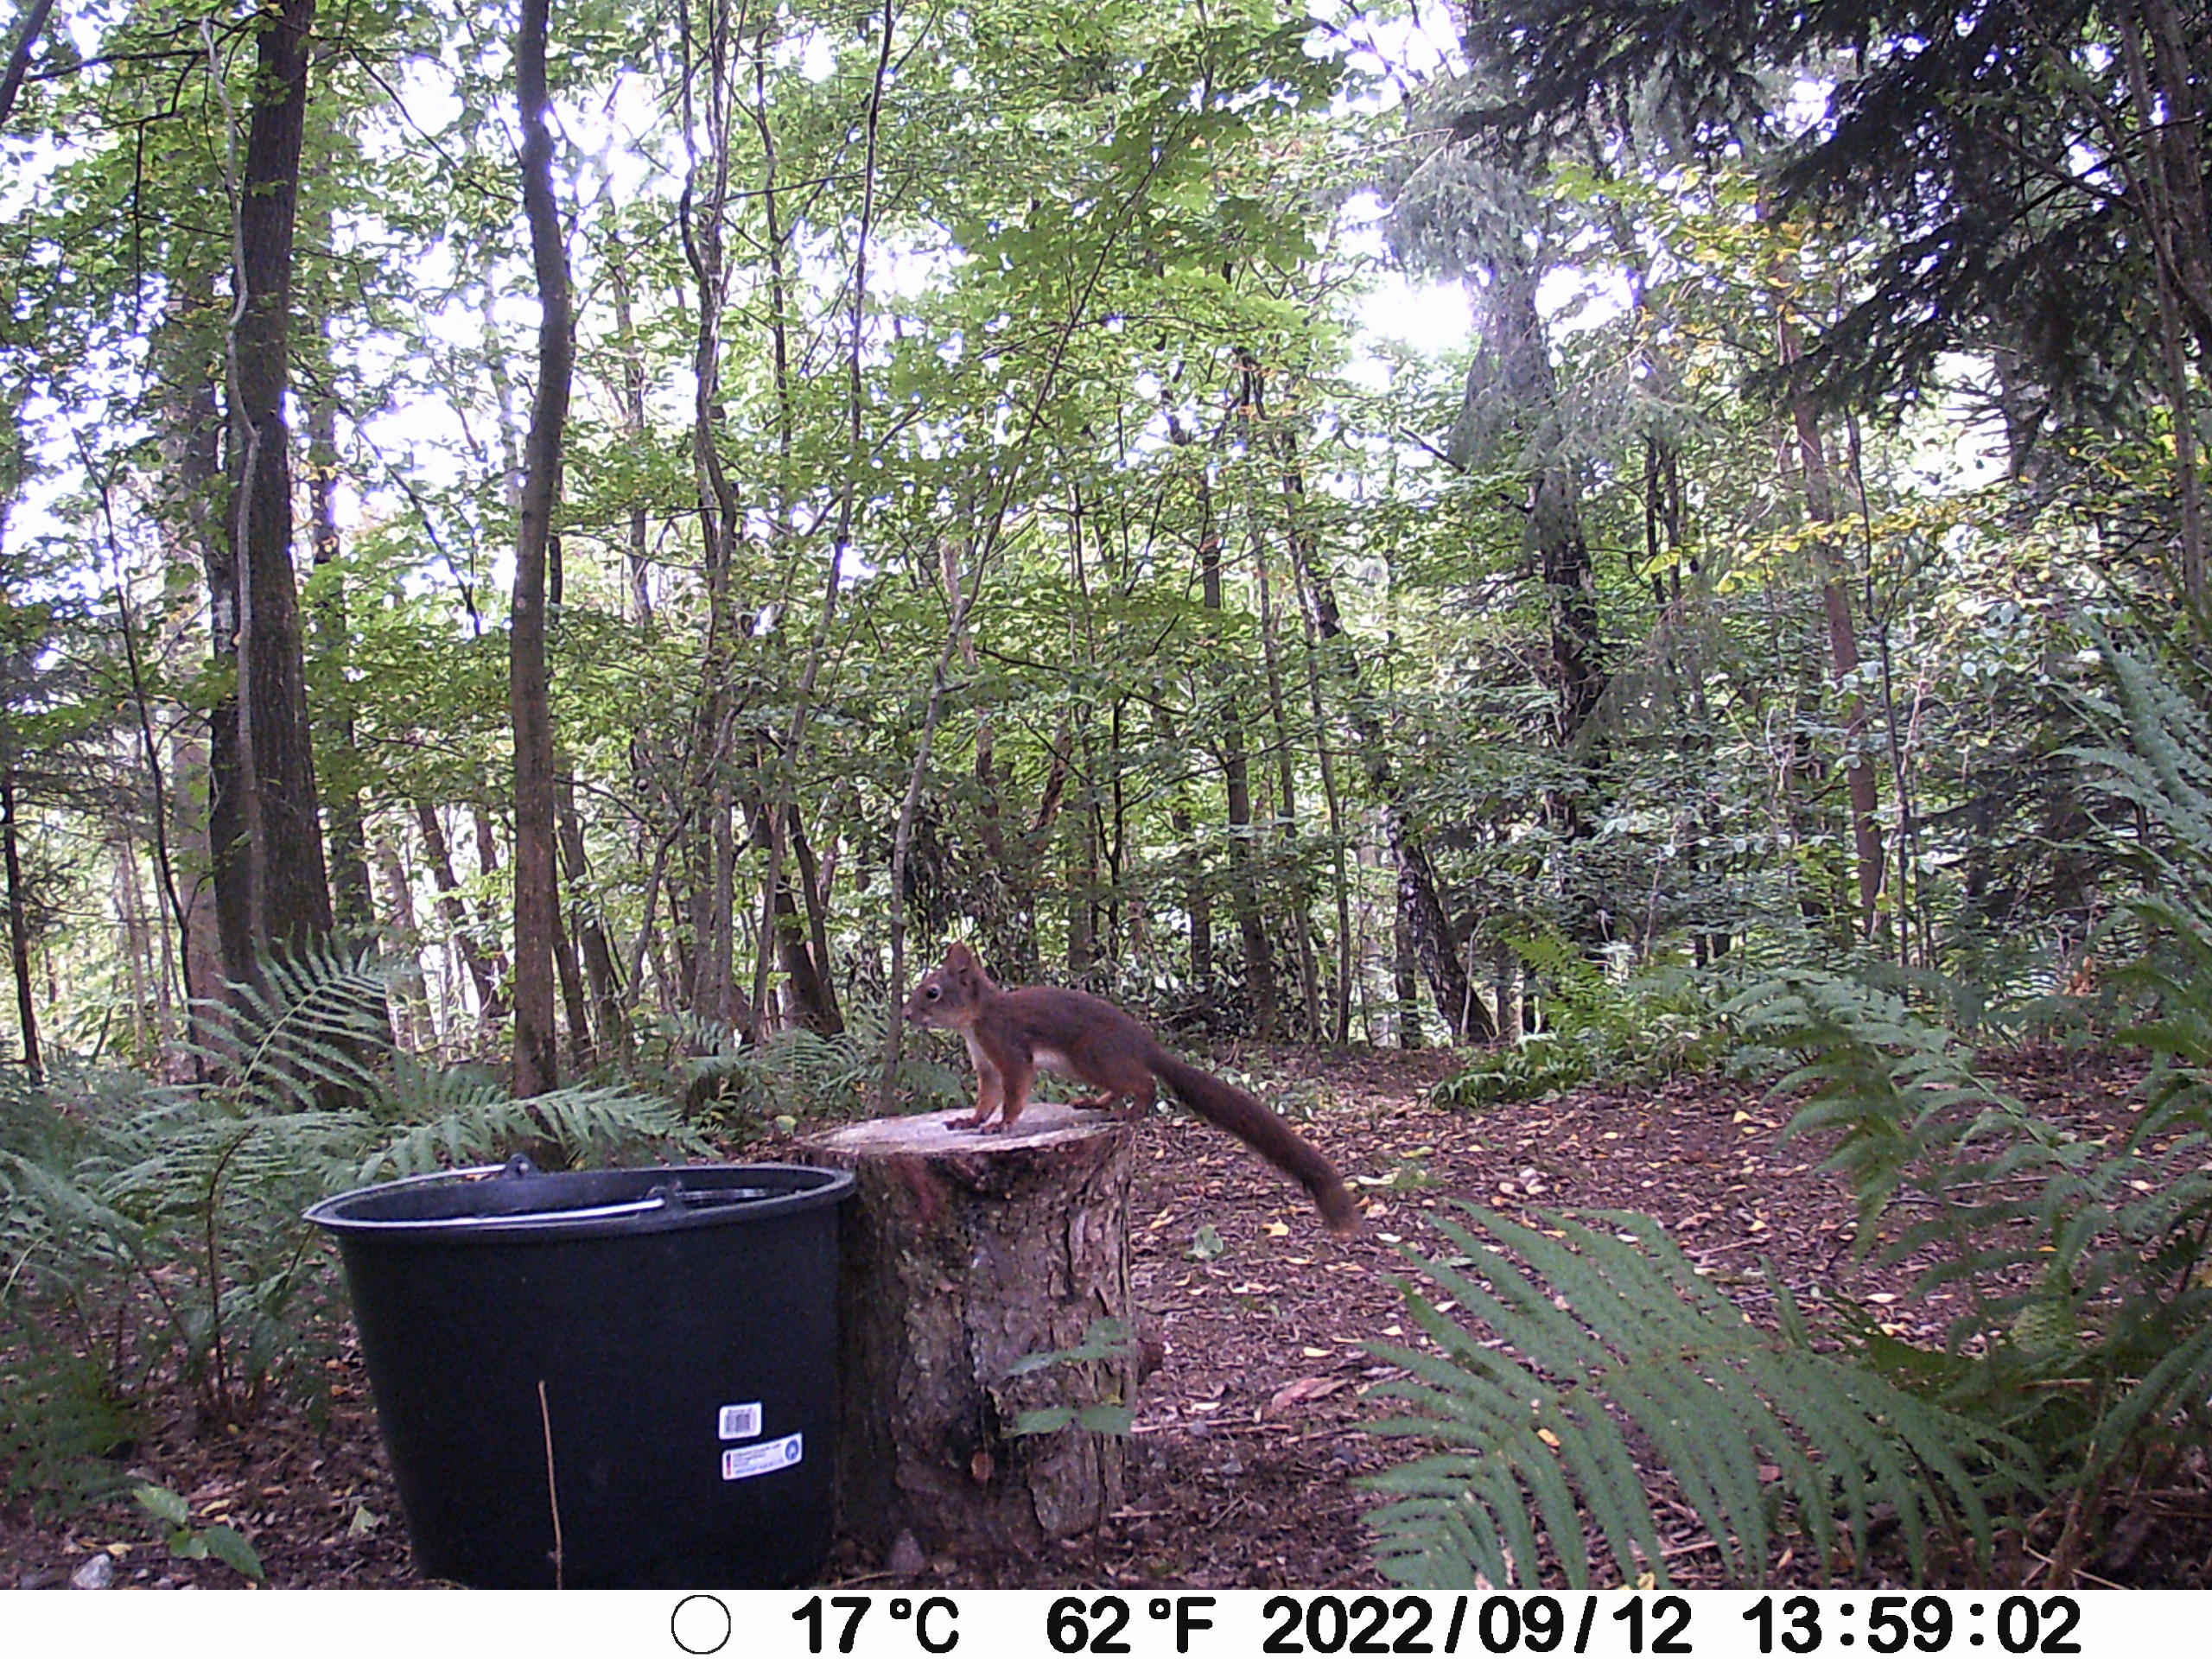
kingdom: Animalia
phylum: Chordata
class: Mammalia
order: Rodentia
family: Sciuridae
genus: Sciurus
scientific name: Sciurus vulgaris
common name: Egern
